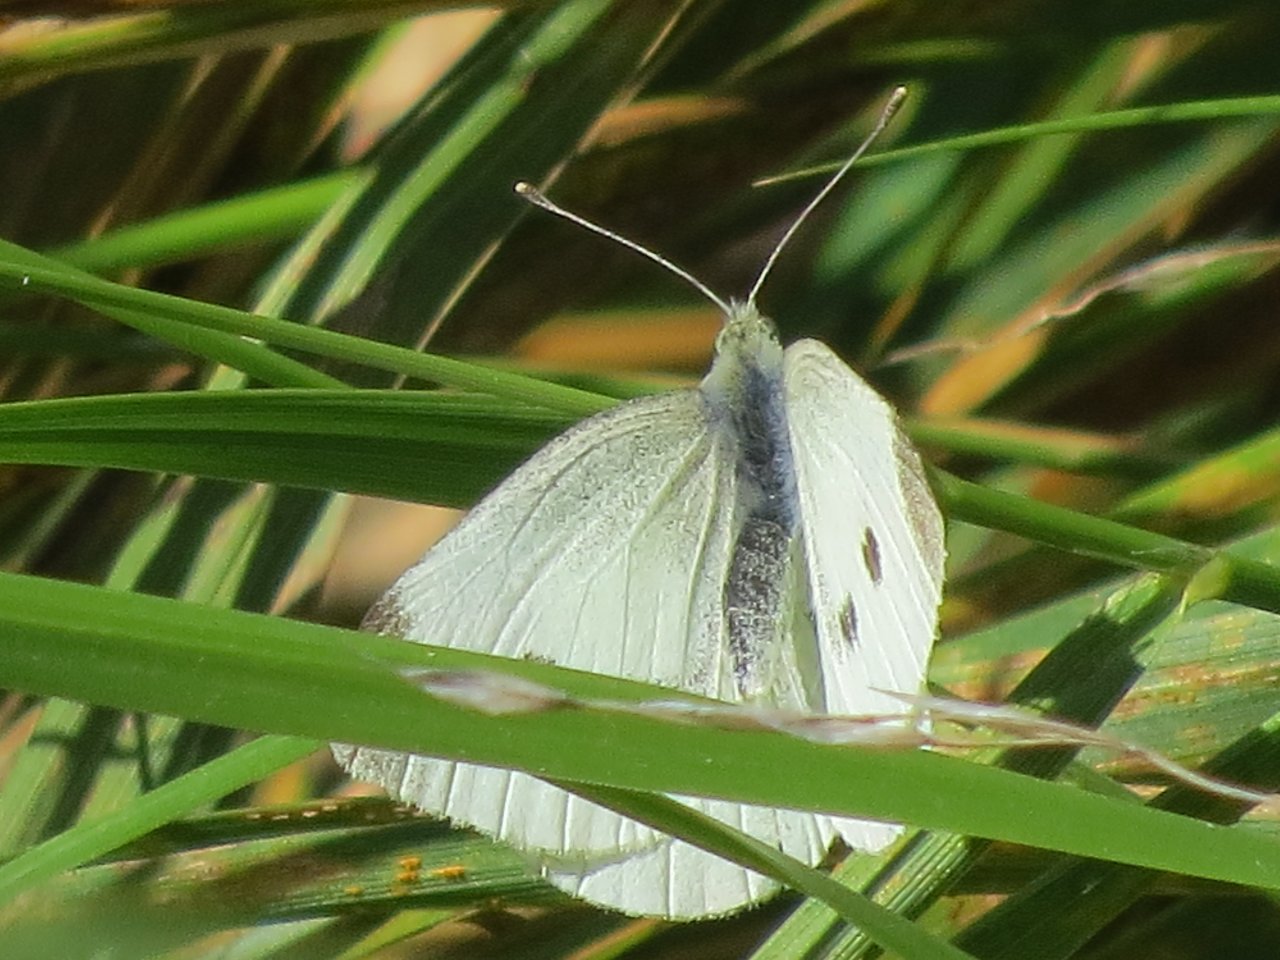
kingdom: Animalia
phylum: Arthropoda
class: Insecta
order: Lepidoptera
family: Pieridae
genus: Pieris
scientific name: Pieris rapae
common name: Cabbage White
